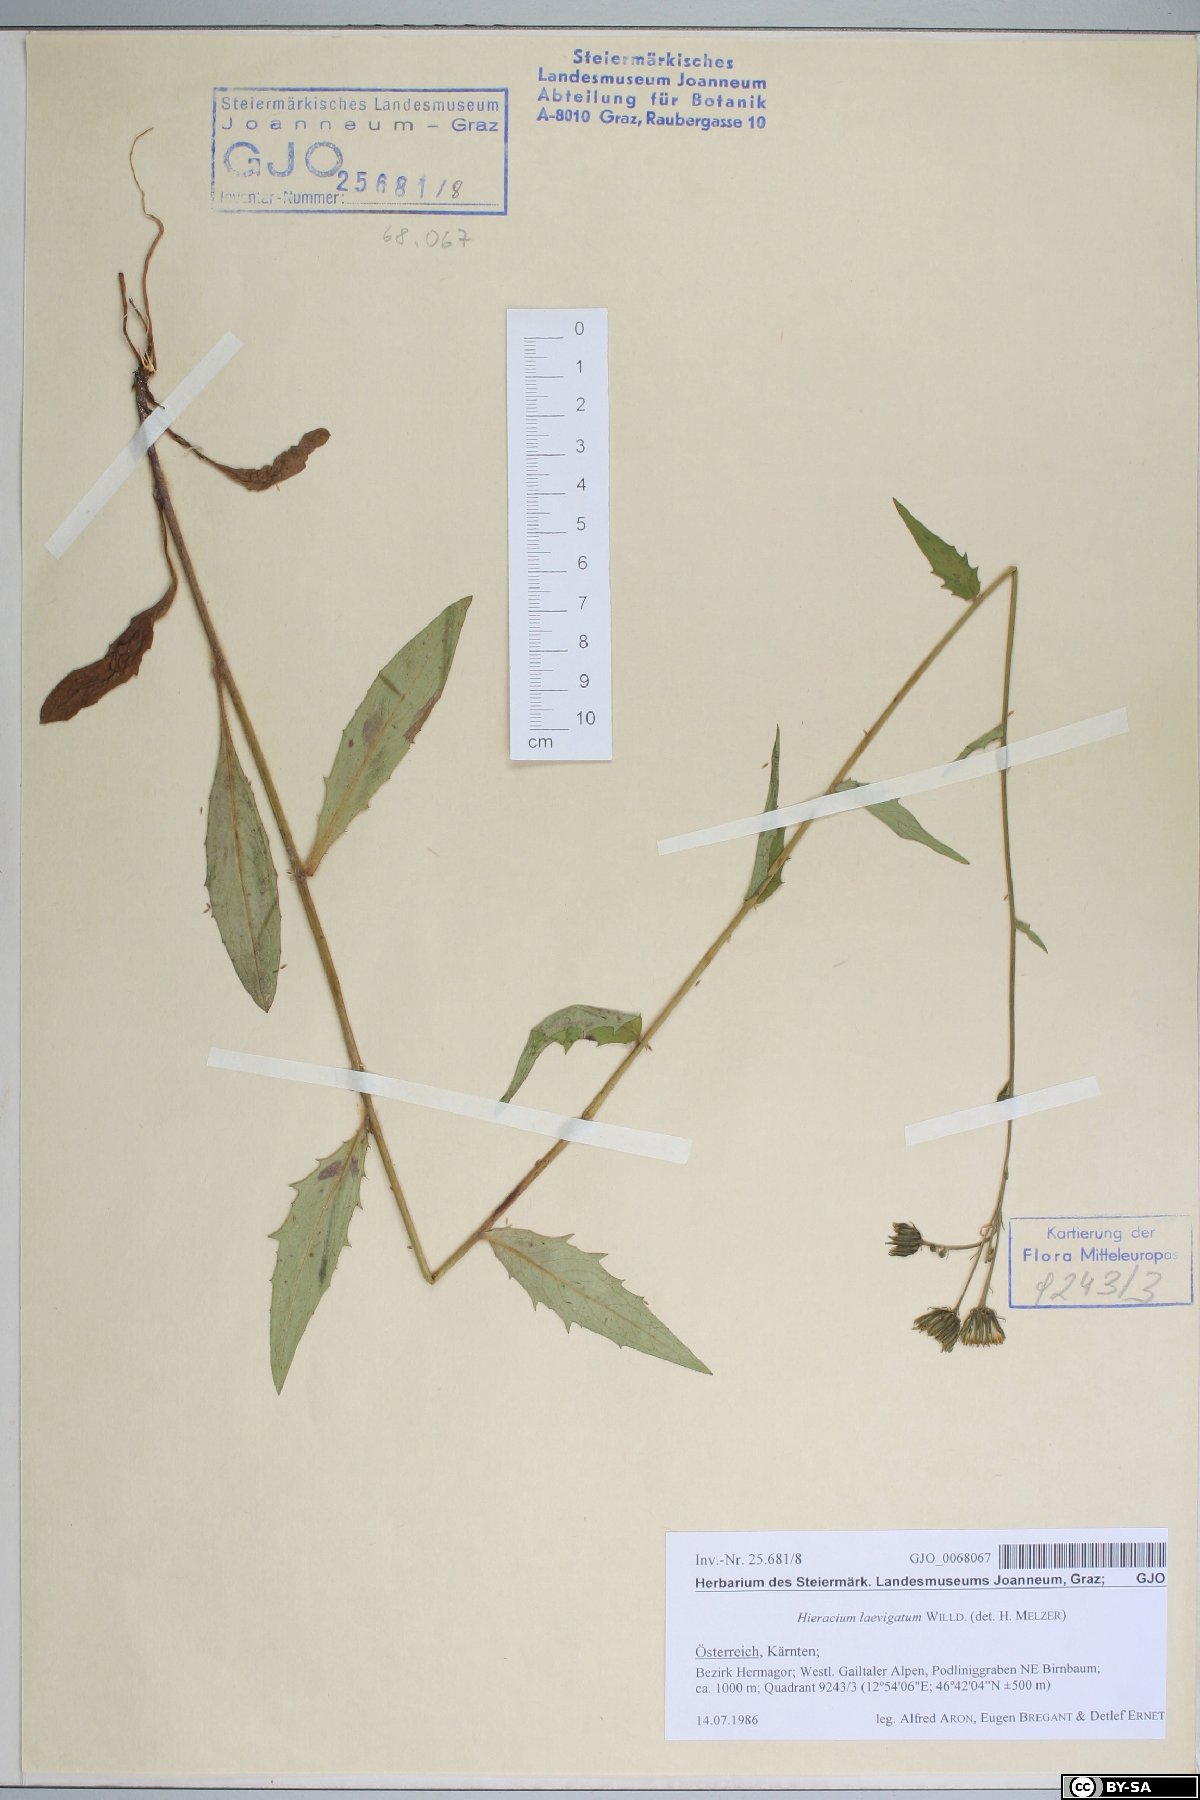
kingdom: Plantae
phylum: Tracheophyta
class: Magnoliopsida
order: Asterales
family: Asteraceae
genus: Hieracium
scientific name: Hieracium laevigatum
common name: Smooth hawkweed
